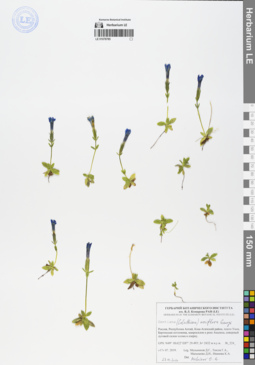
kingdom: Plantae
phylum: Tracheophyta
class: Magnoliopsida
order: Gentianales
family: Gentianaceae
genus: Gentiana
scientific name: Gentiana uniflora
